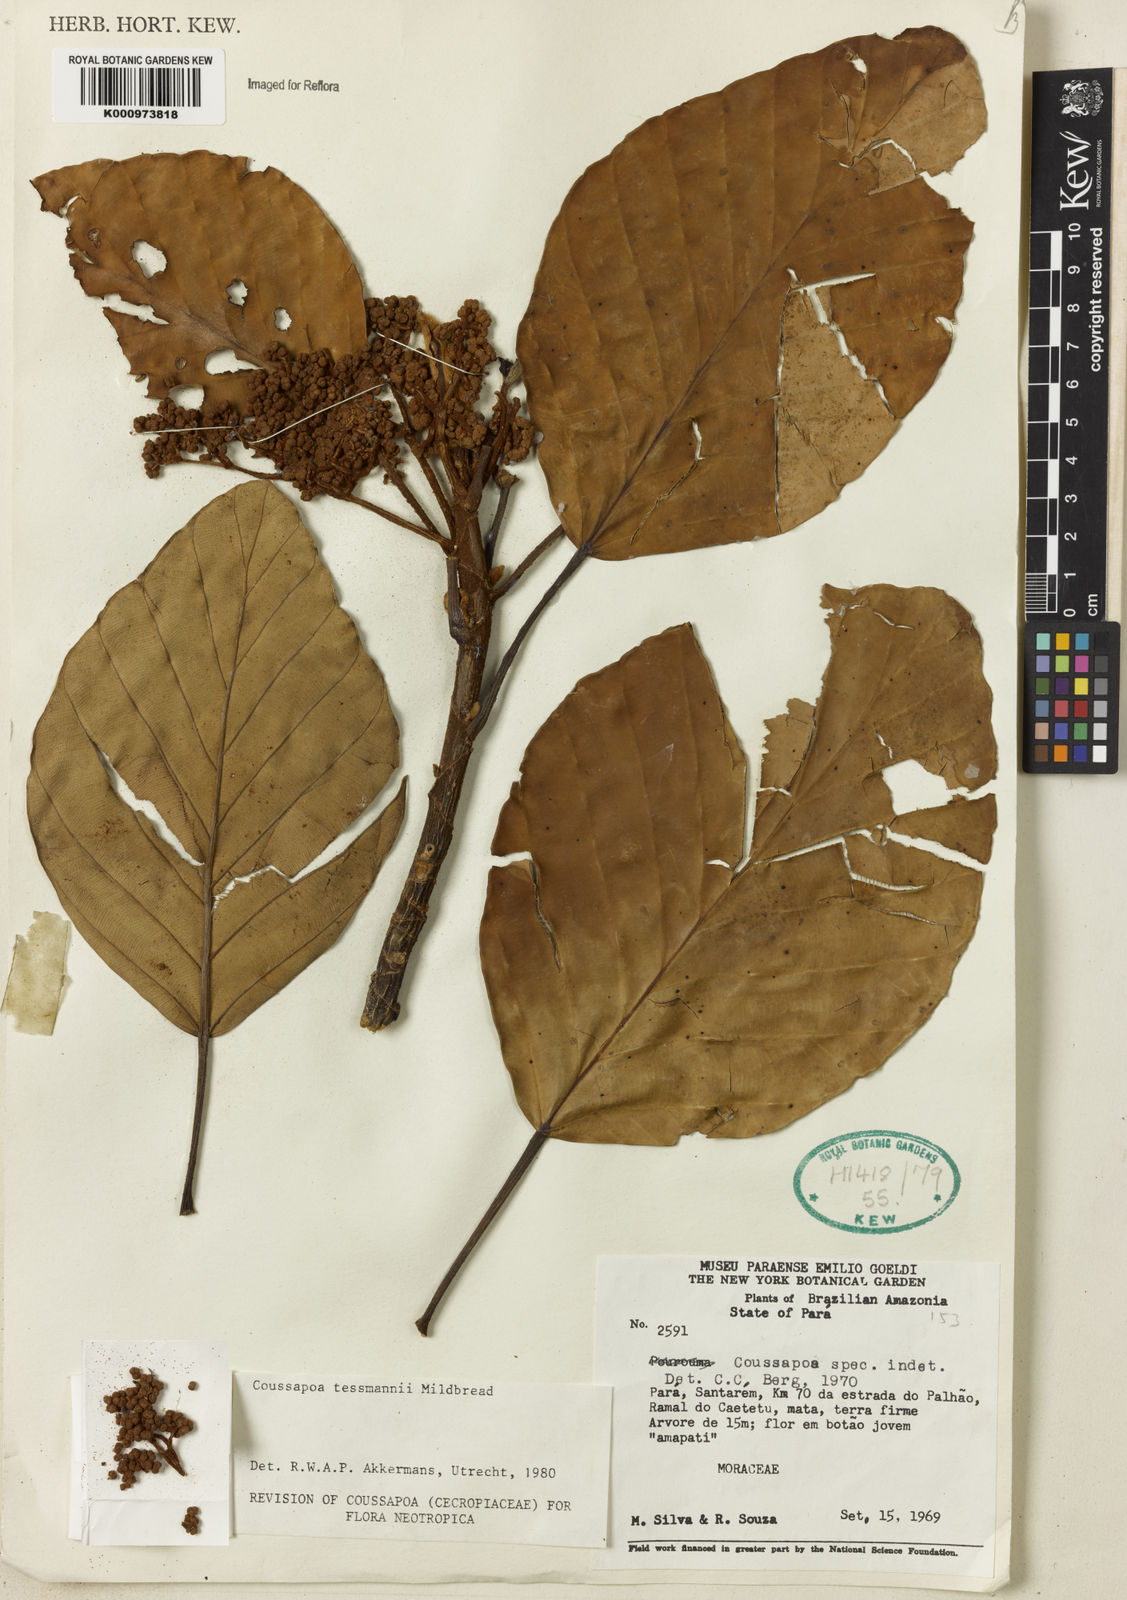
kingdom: Plantae
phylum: Tracheophyta
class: Magnoliopsida
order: Rosales
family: Urticaceae
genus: Coussapoa
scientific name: Coussapoa tessmannii
